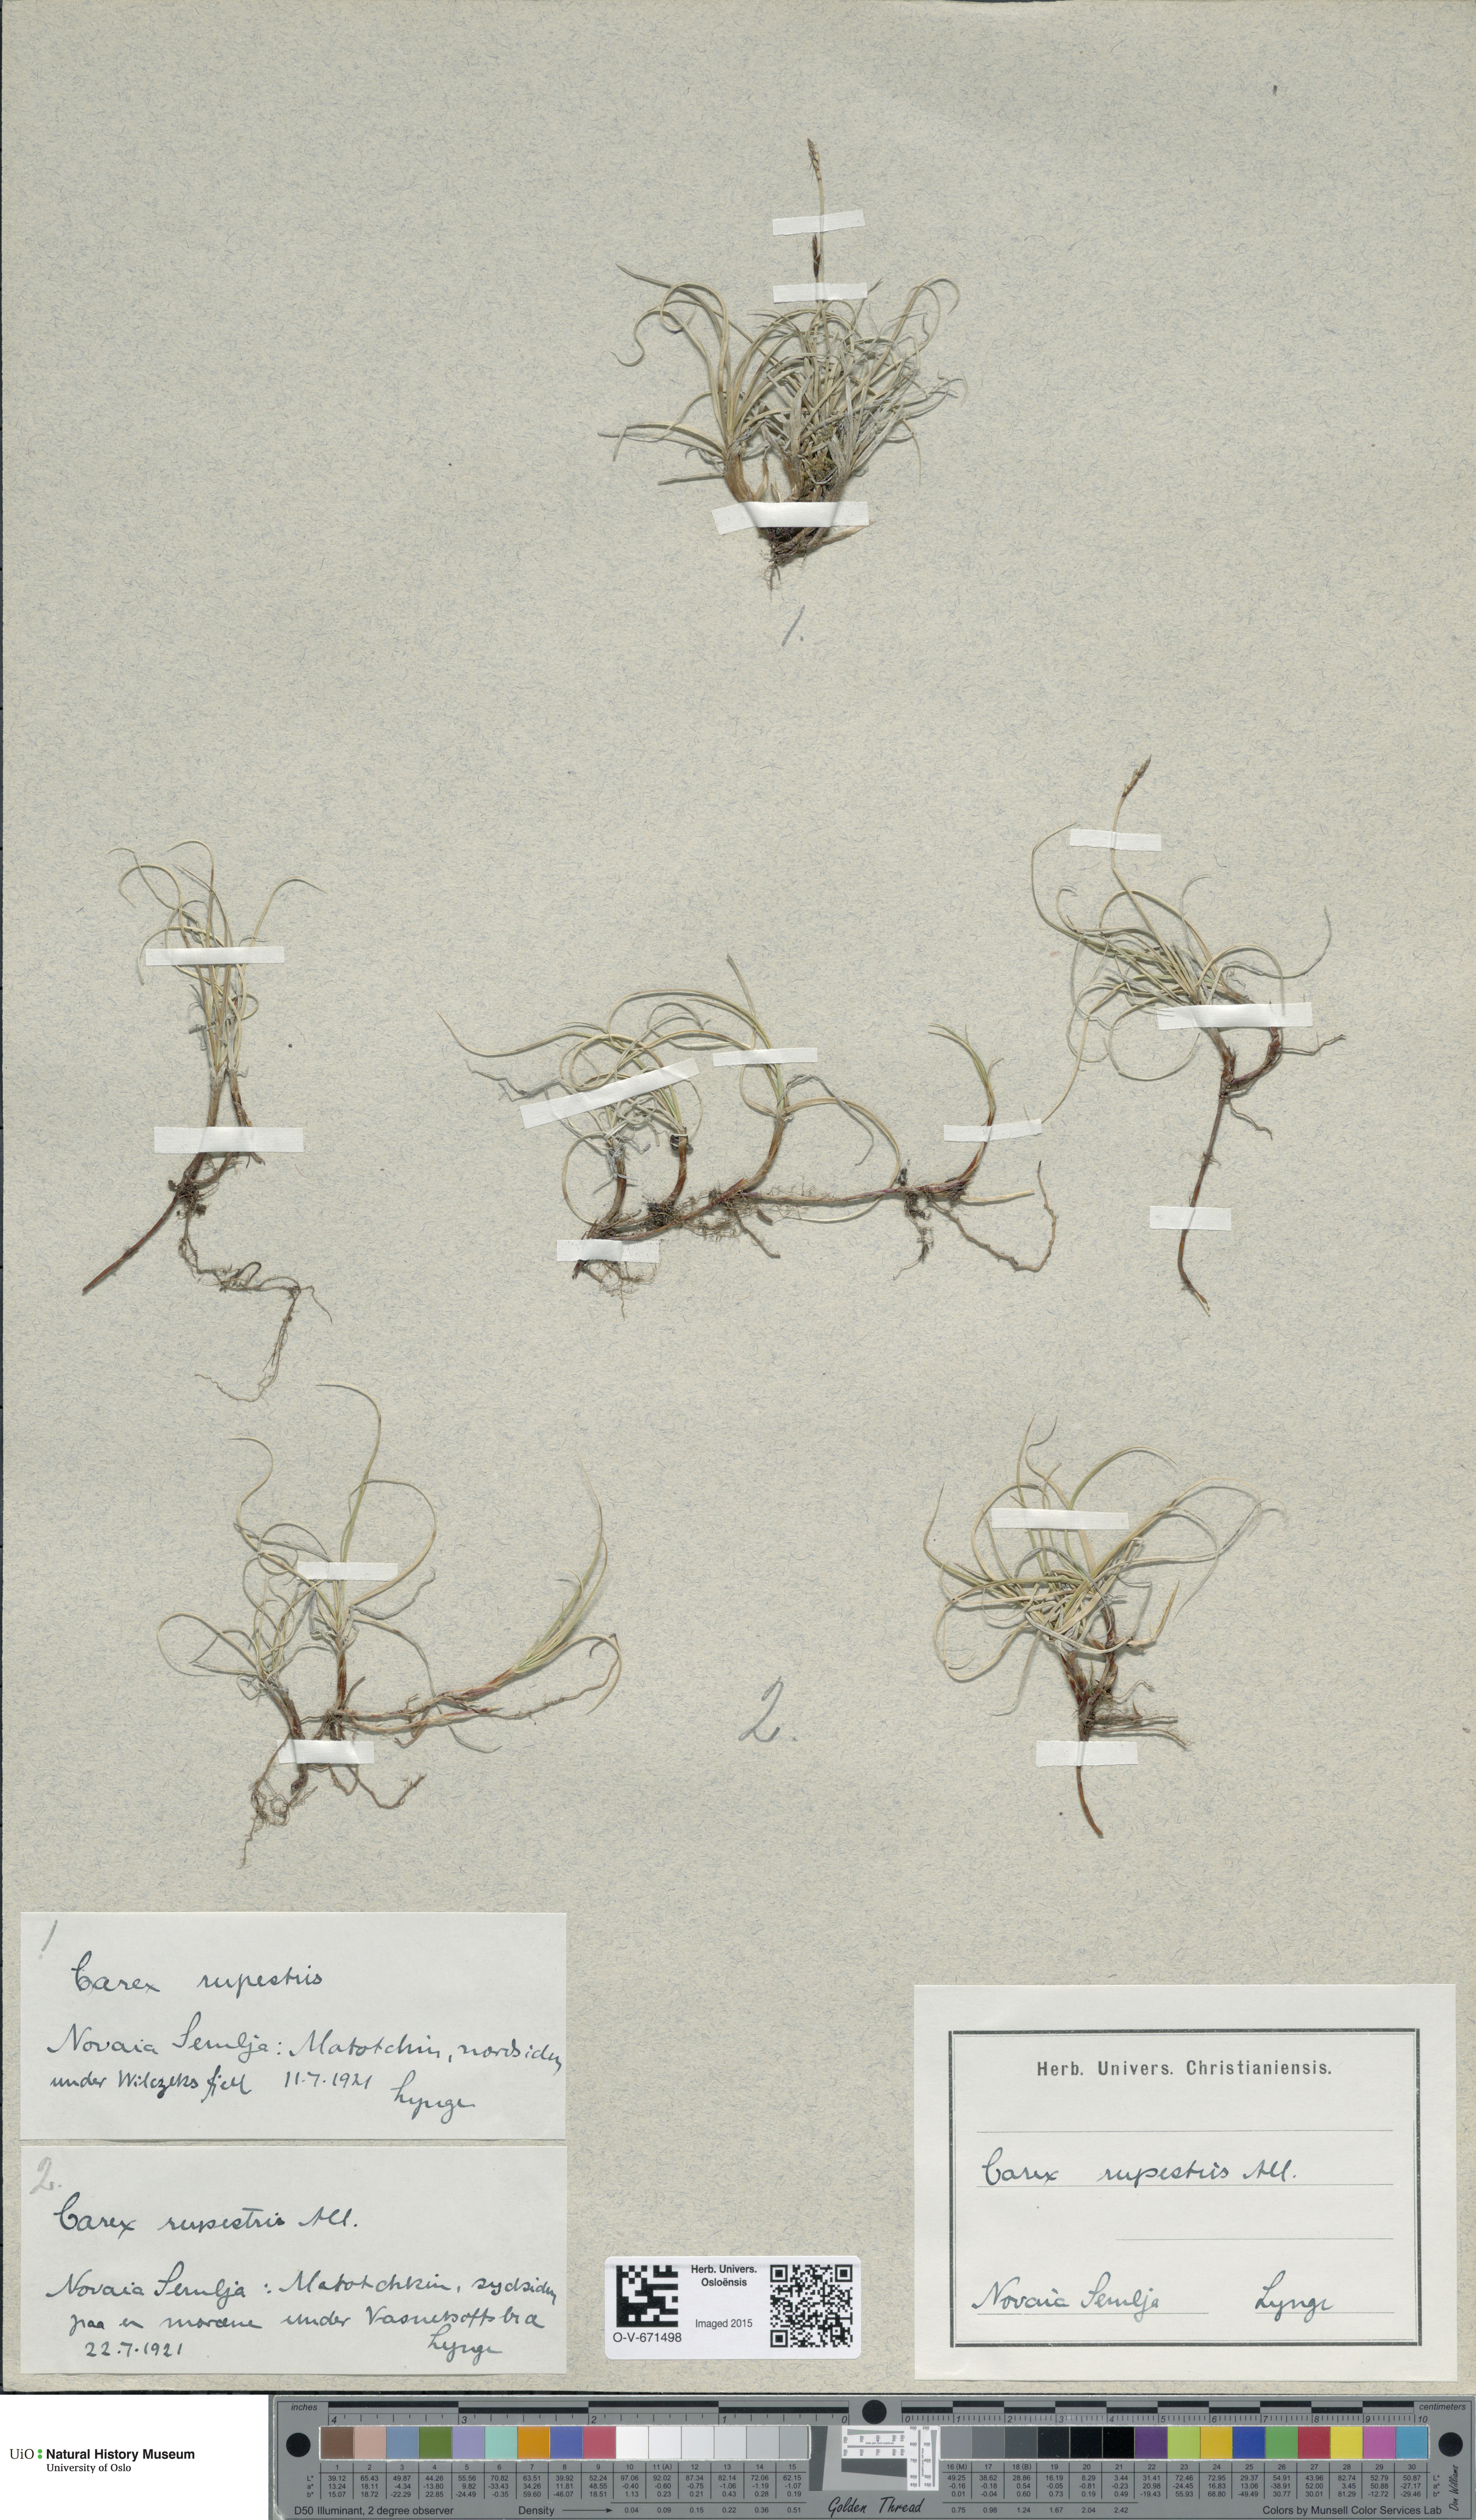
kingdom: Plantae
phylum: Tracheophyta
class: Liliopsida
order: Poales
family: Cyperaceae
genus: Carex
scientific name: Carex rupestris
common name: Rock sedge
